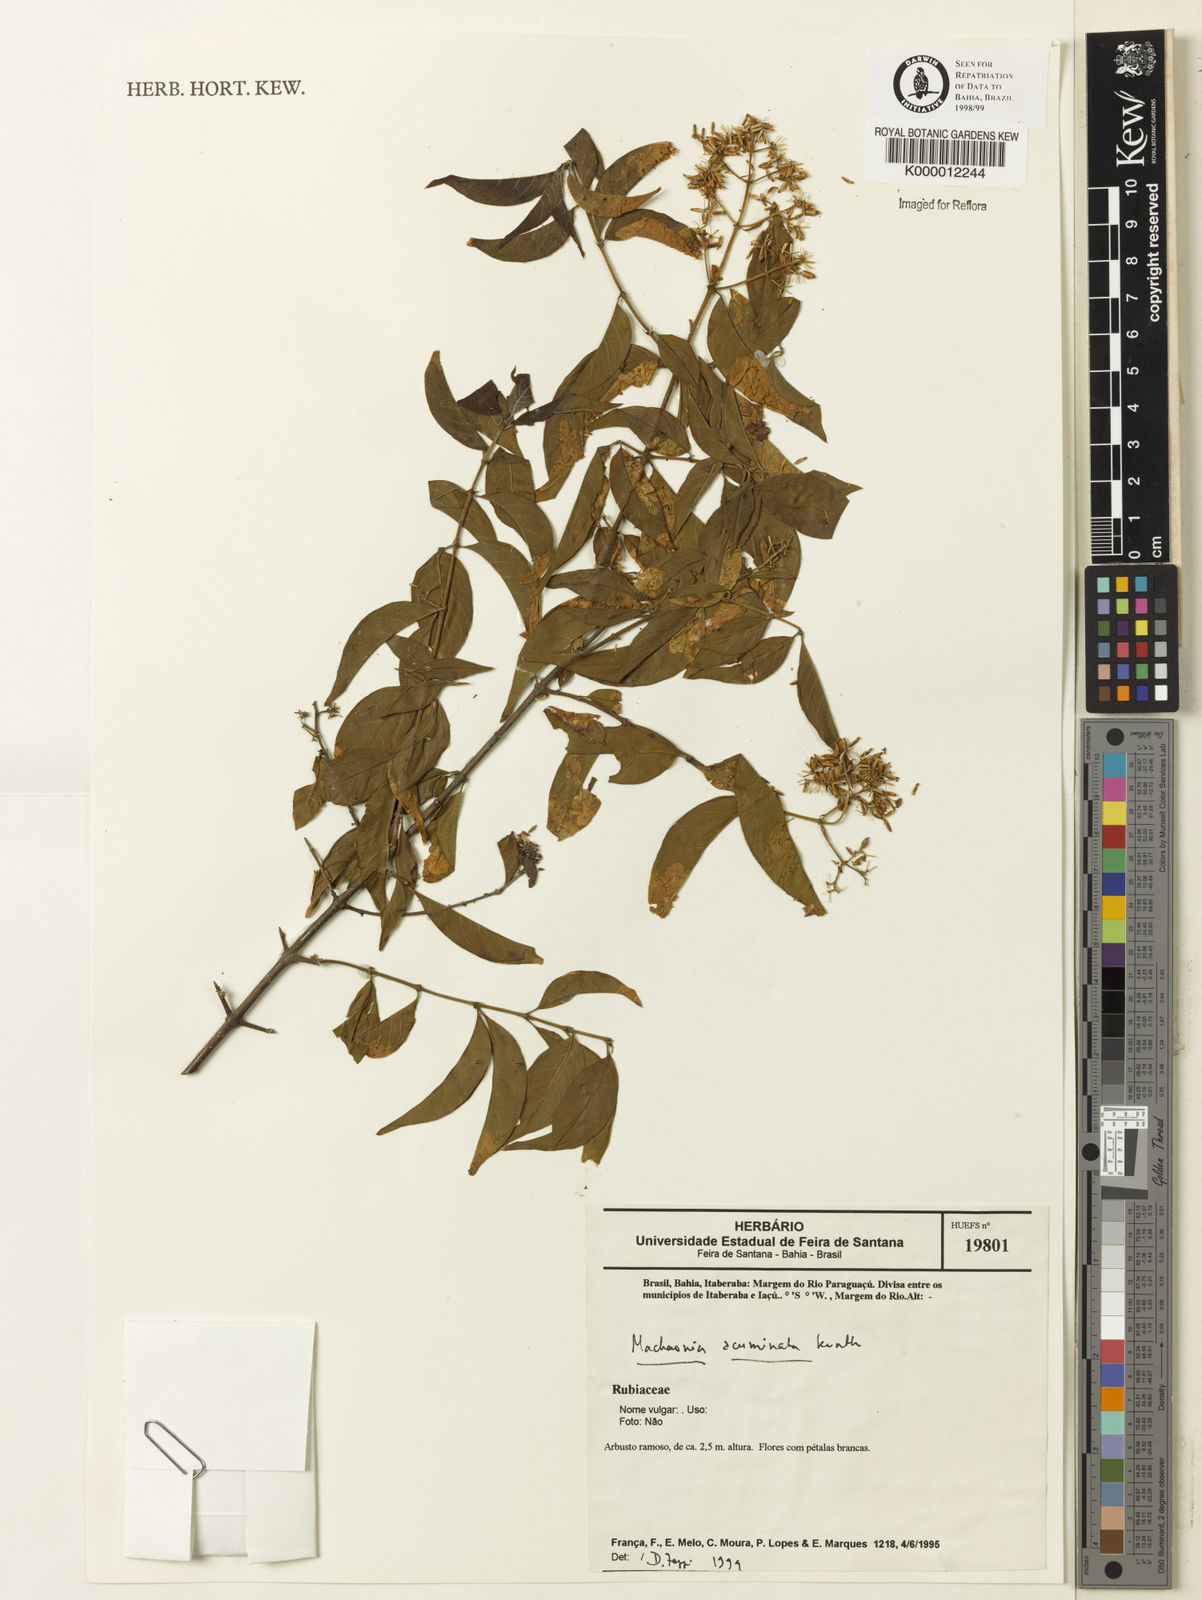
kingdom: Plantae
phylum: Tracheophyta
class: Magnoliopsida
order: Gentianales
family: Rubiaceae
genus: Machaonia
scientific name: Machaonia
